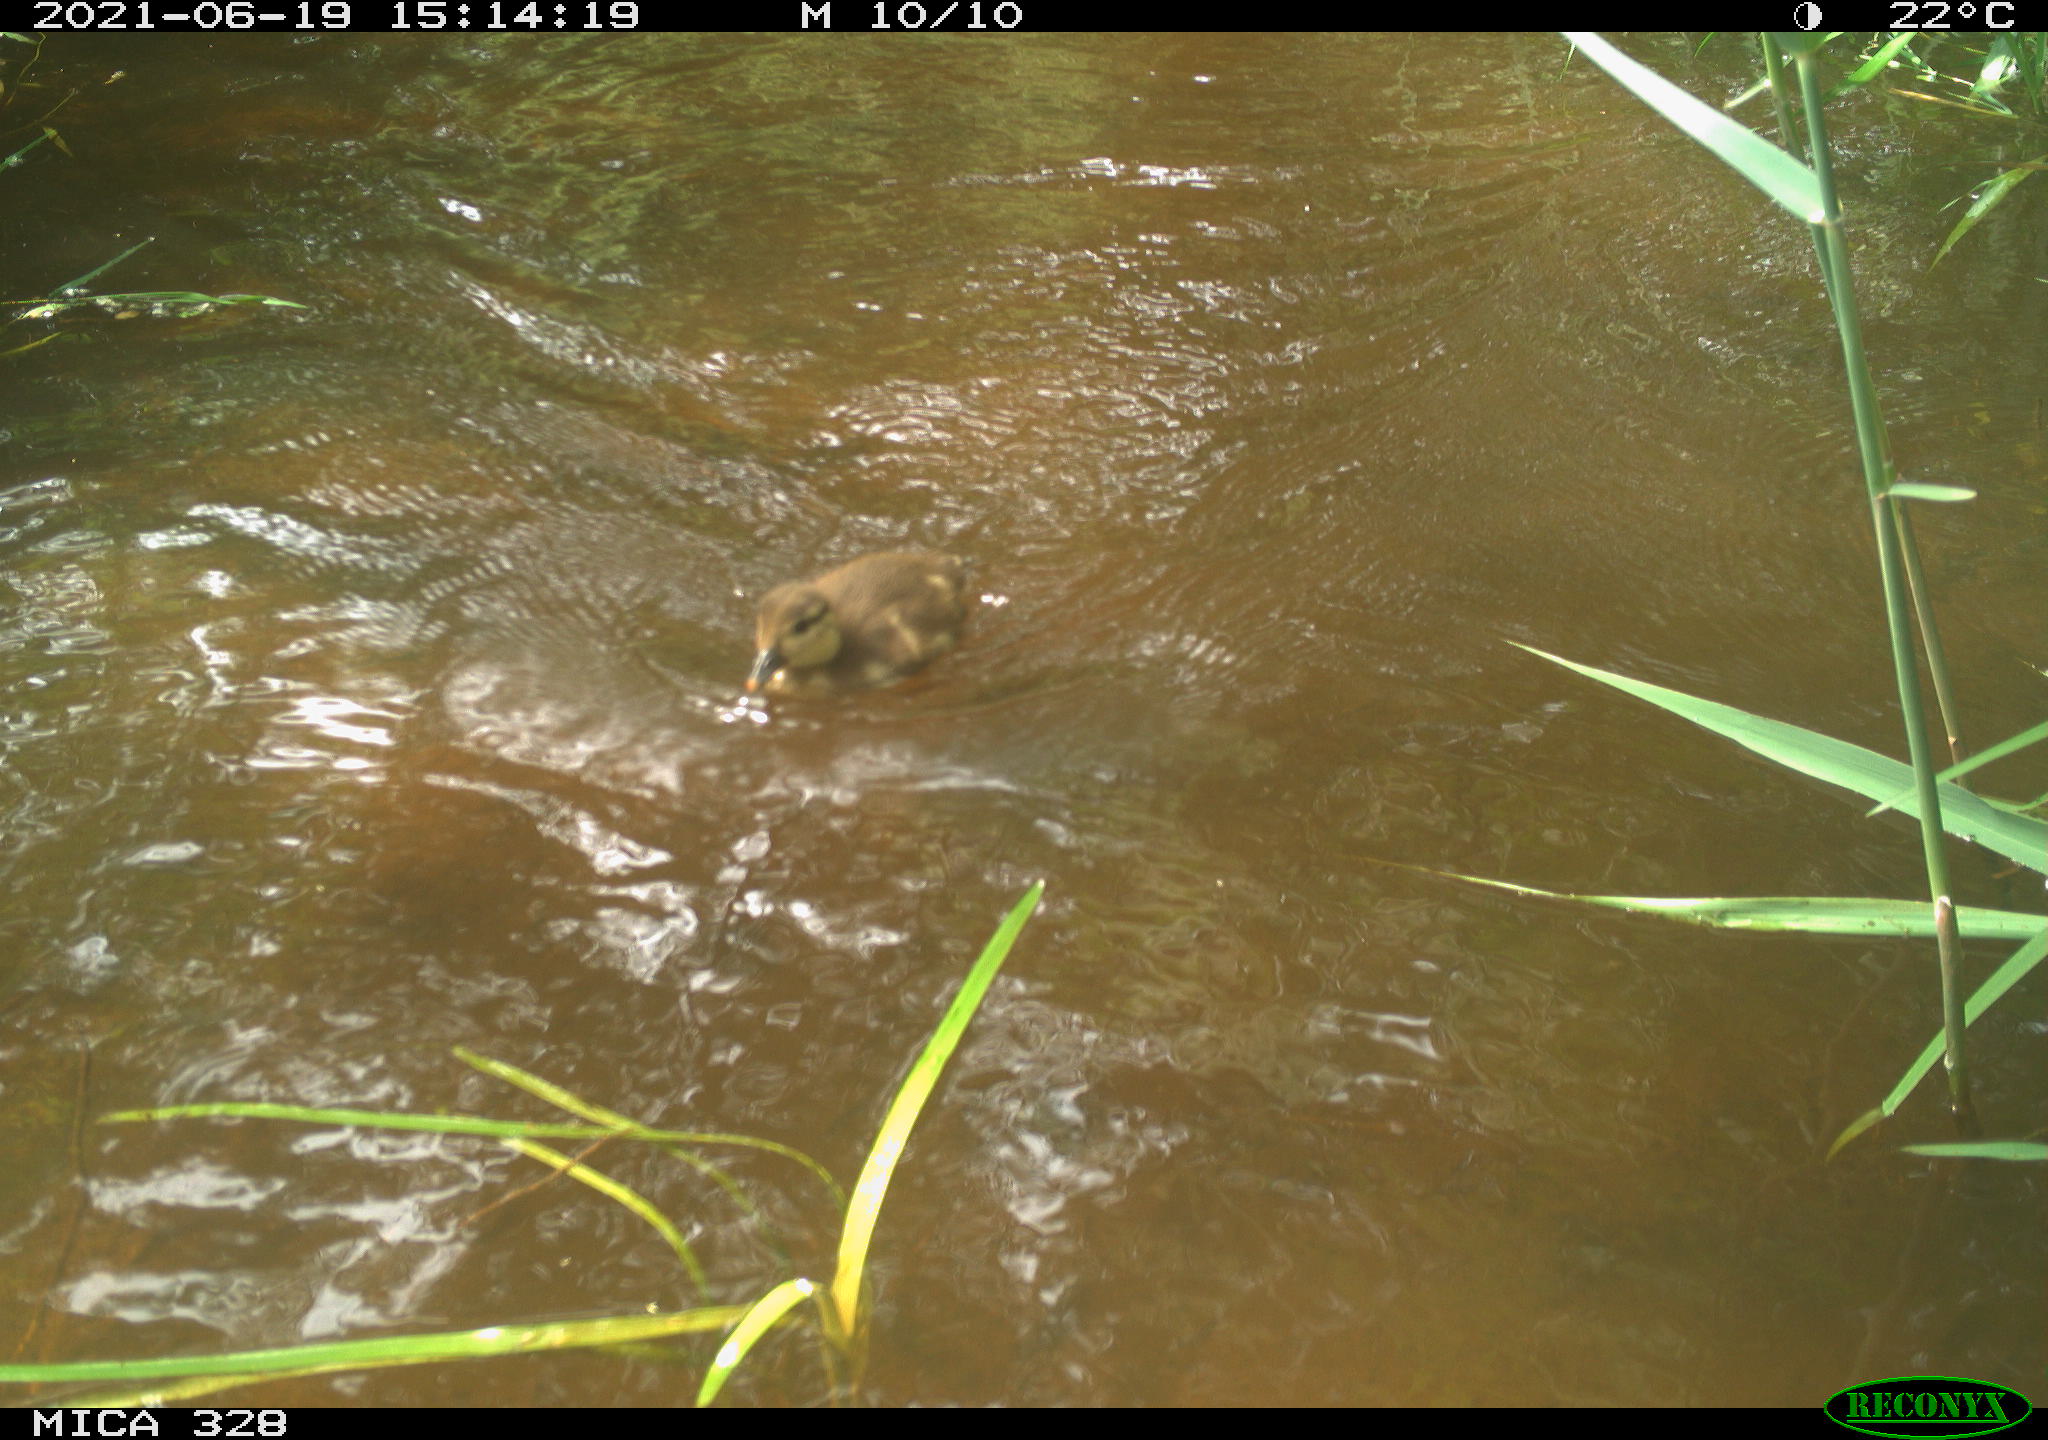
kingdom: Animalia
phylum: Chordata
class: Aves
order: Anseriformes
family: Anatidae
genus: Aix
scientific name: Aix galericulata
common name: Mandarin duck
